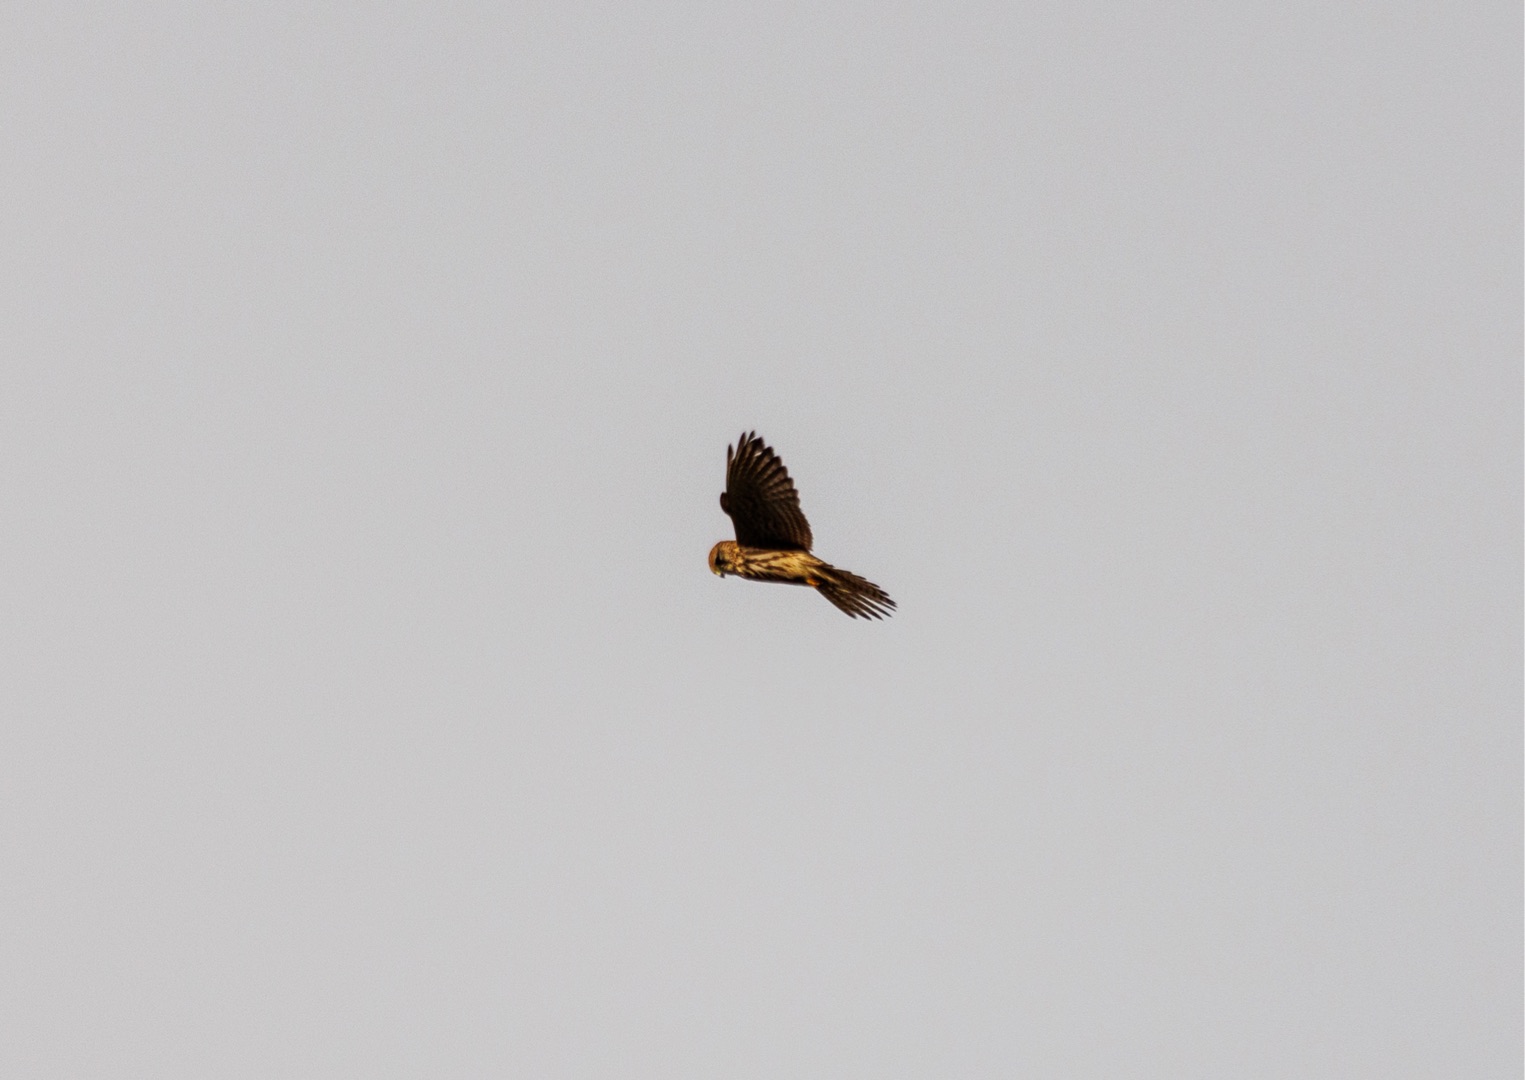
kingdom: Animalia
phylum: Chordata
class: Aves
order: Falconiformes
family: Falconidae
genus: Falco
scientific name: Falco tinnunculus
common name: Tårnfalk
